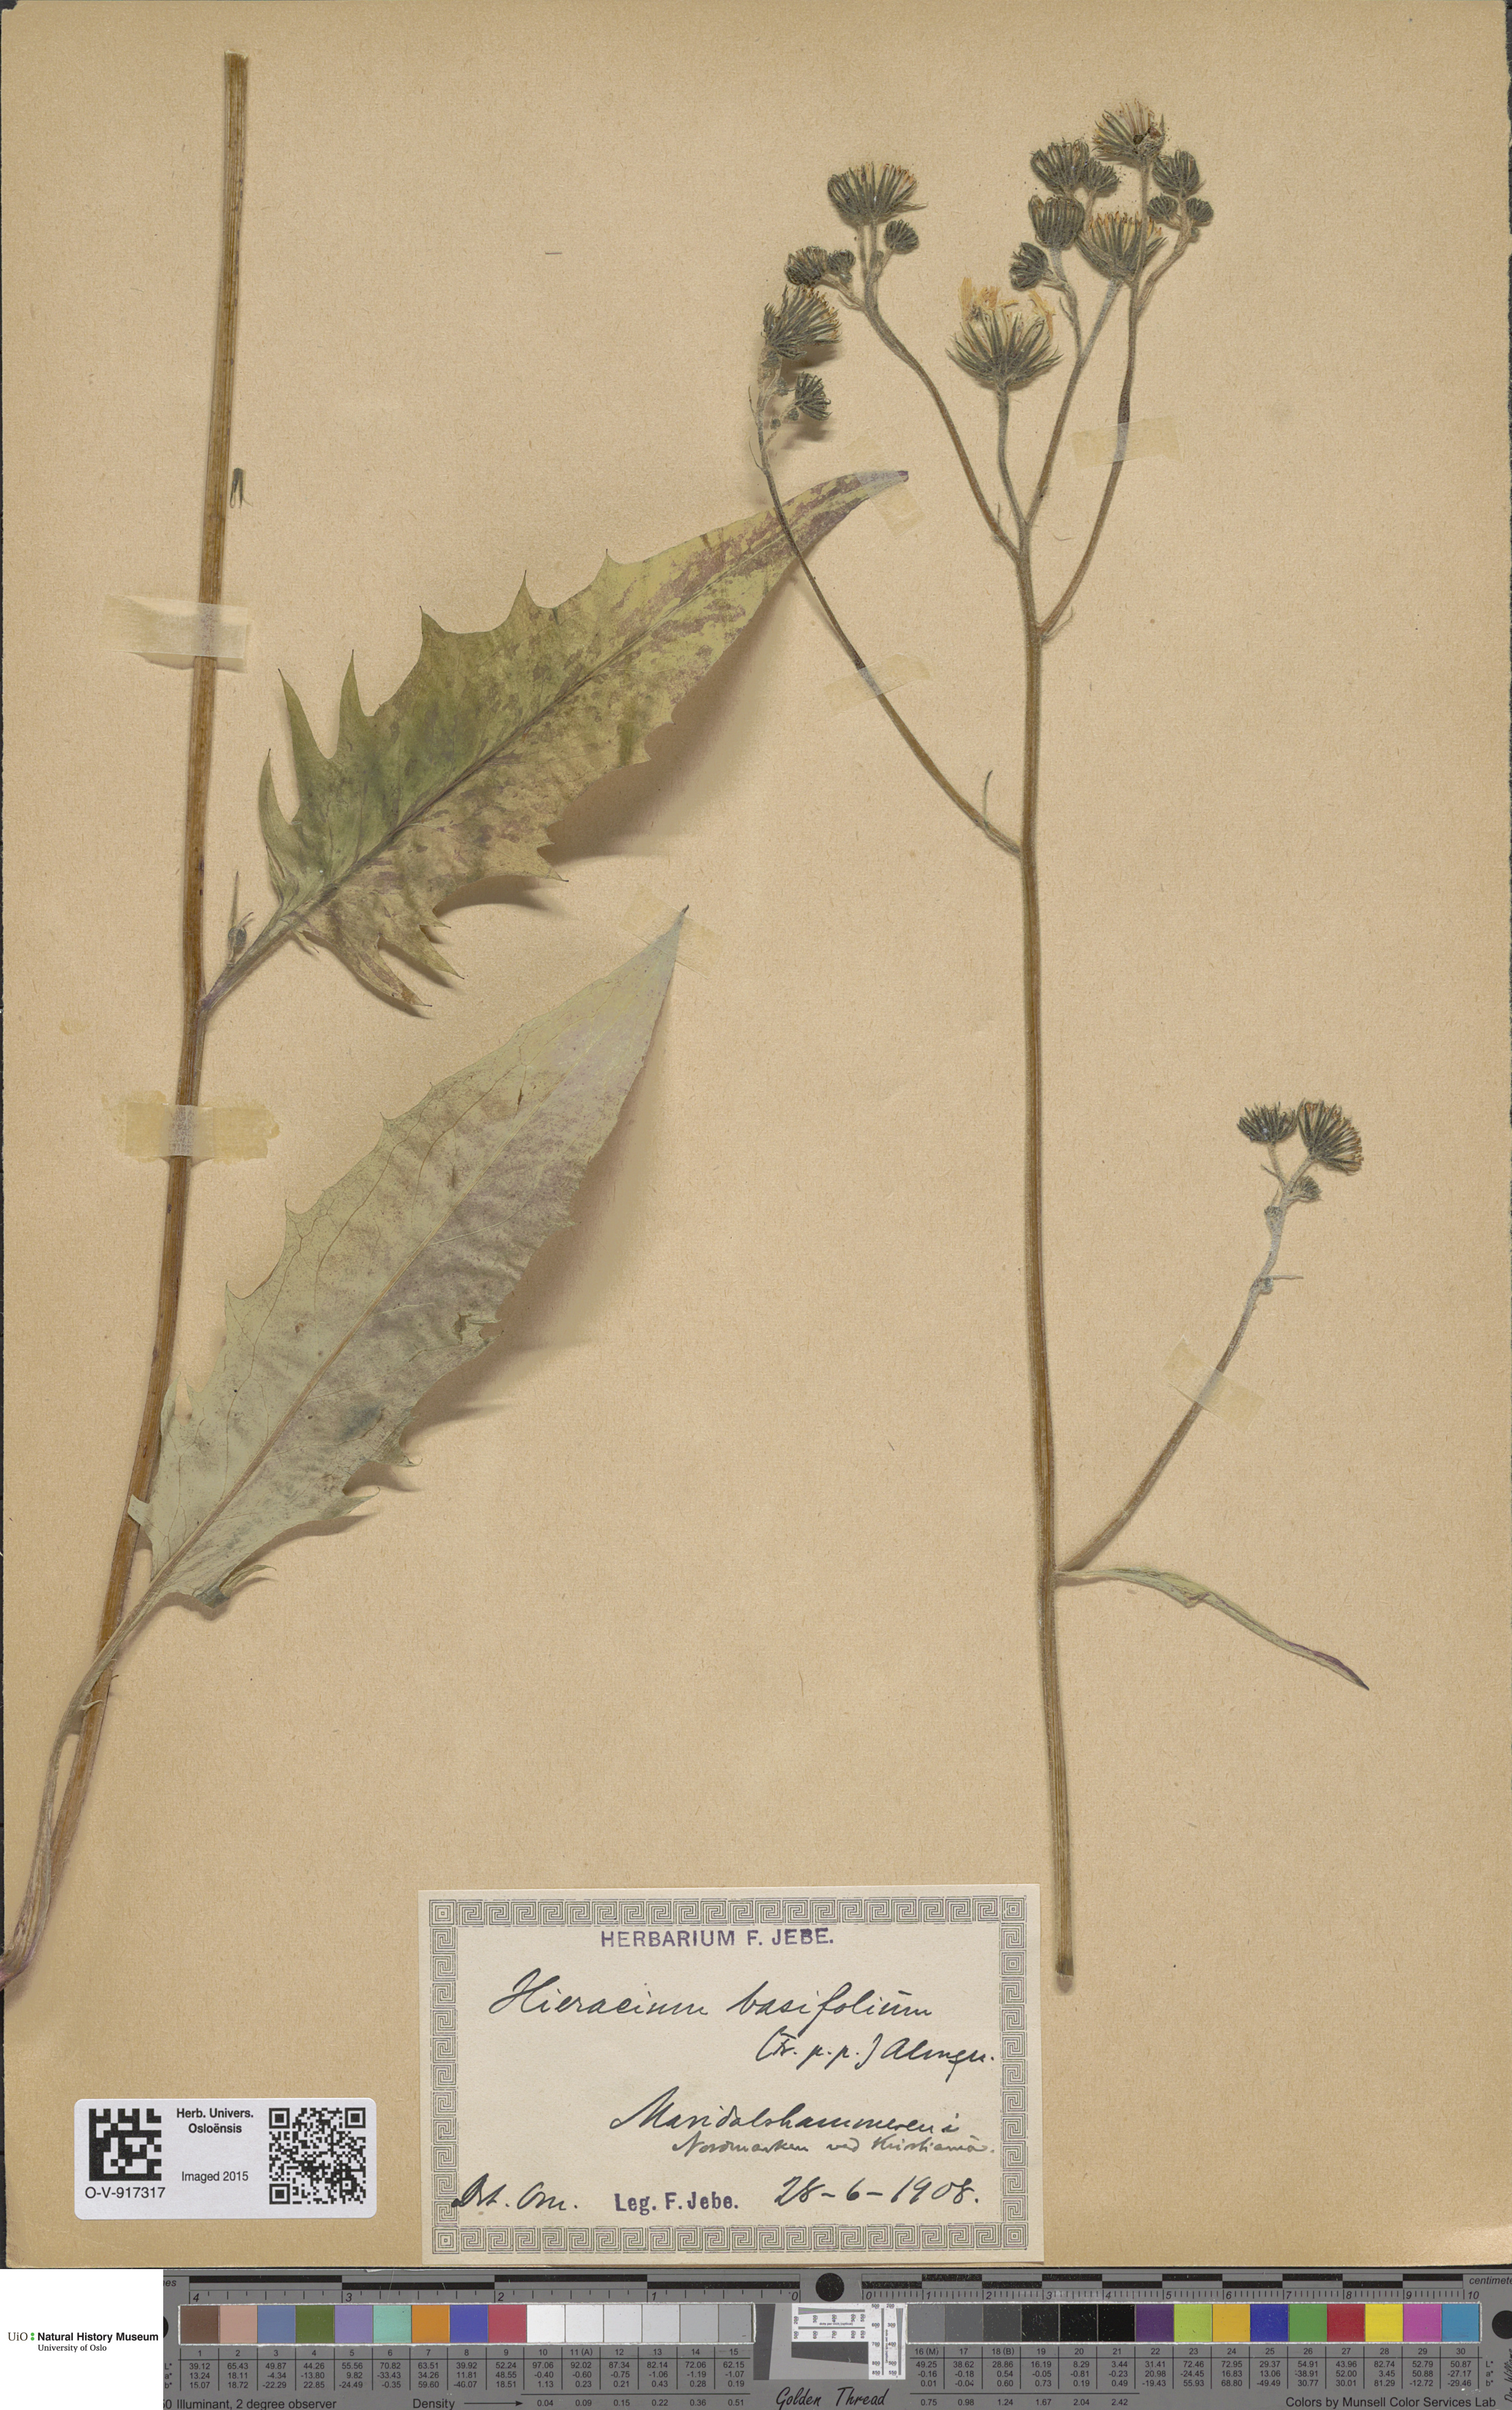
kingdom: Plantae
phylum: Tracheophyta
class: Magnoliopsida
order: Asterales
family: Asteraceae
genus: Hieracium
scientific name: Hieracium basifolium
